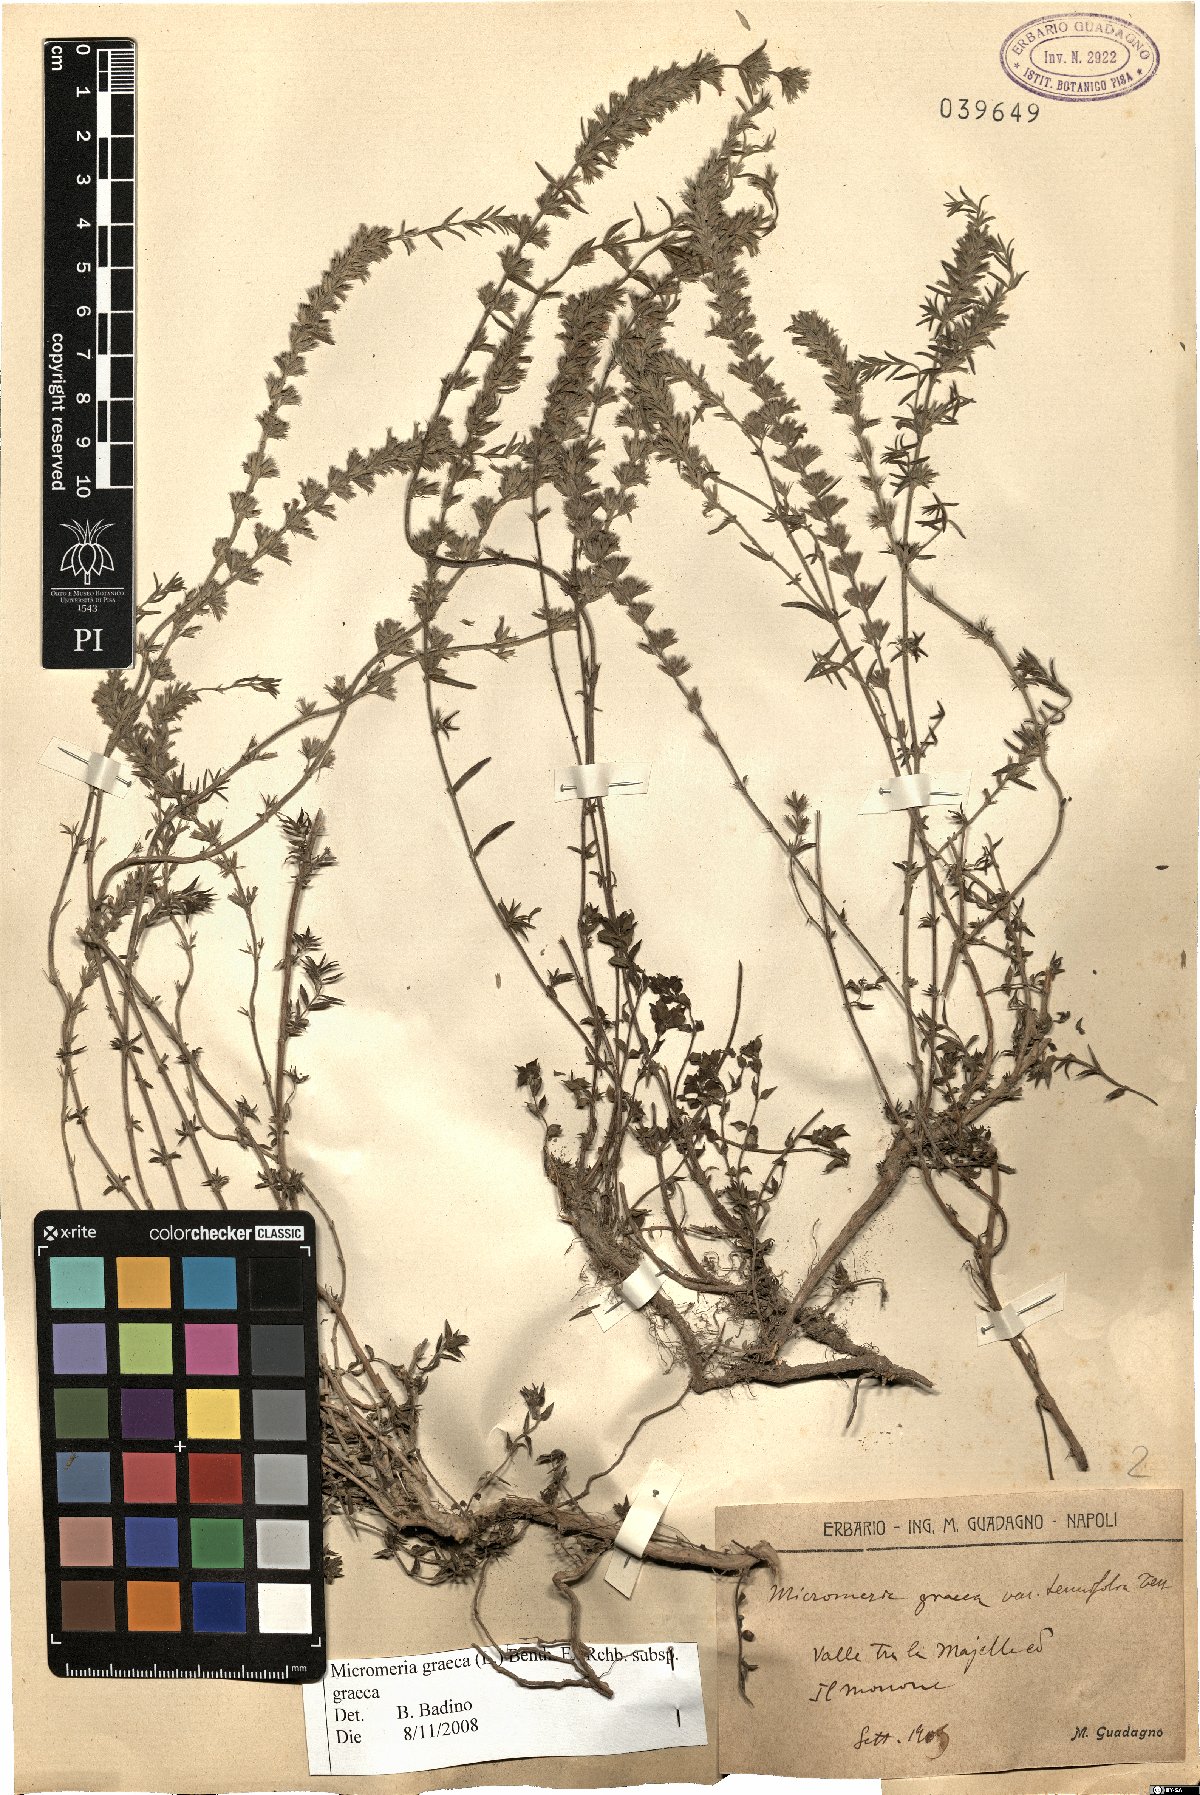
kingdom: Plantae
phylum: Tracheophyta
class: Magnoliopsida
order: Lamiales
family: Lamiaceae
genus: Micromeria
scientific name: Micromeria graeca
